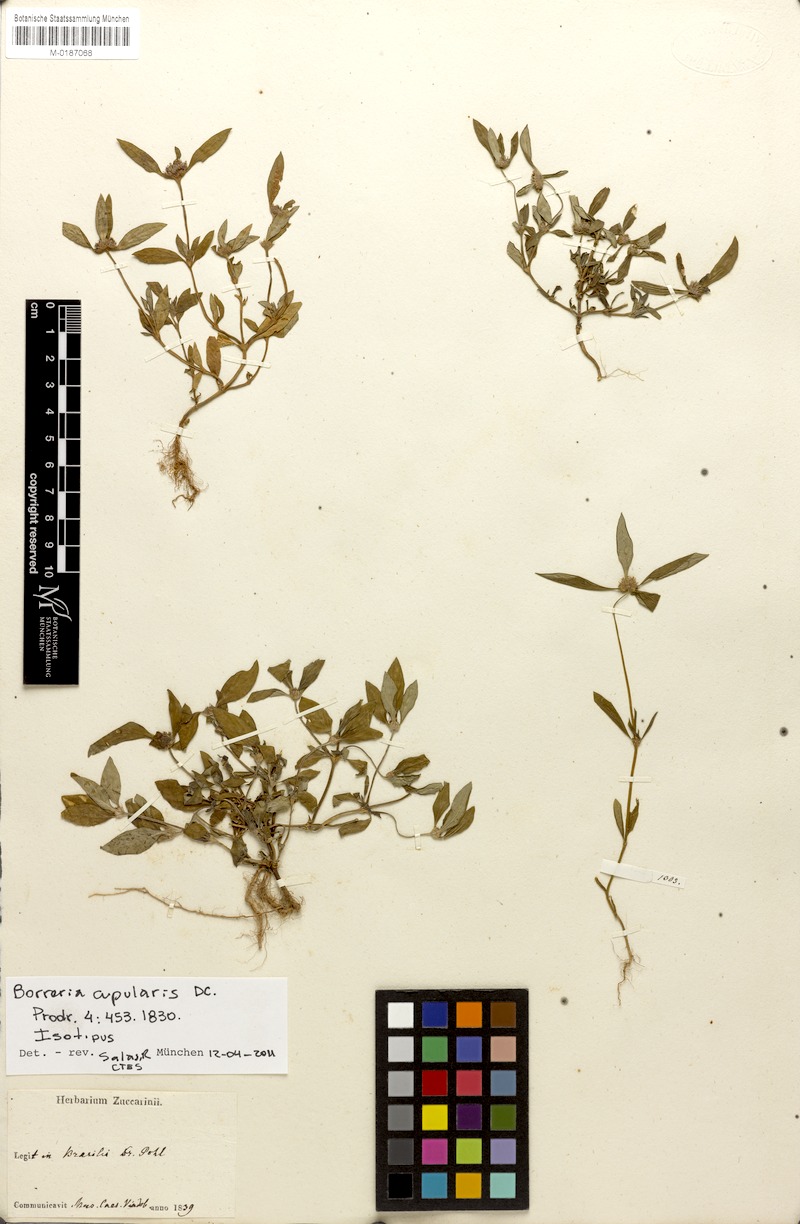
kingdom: Plantae
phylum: Tracheophyta
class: Magnoliopsida
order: Gentianales
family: Rubiaceae
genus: Spermacoce
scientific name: Spermacoce cupularis
